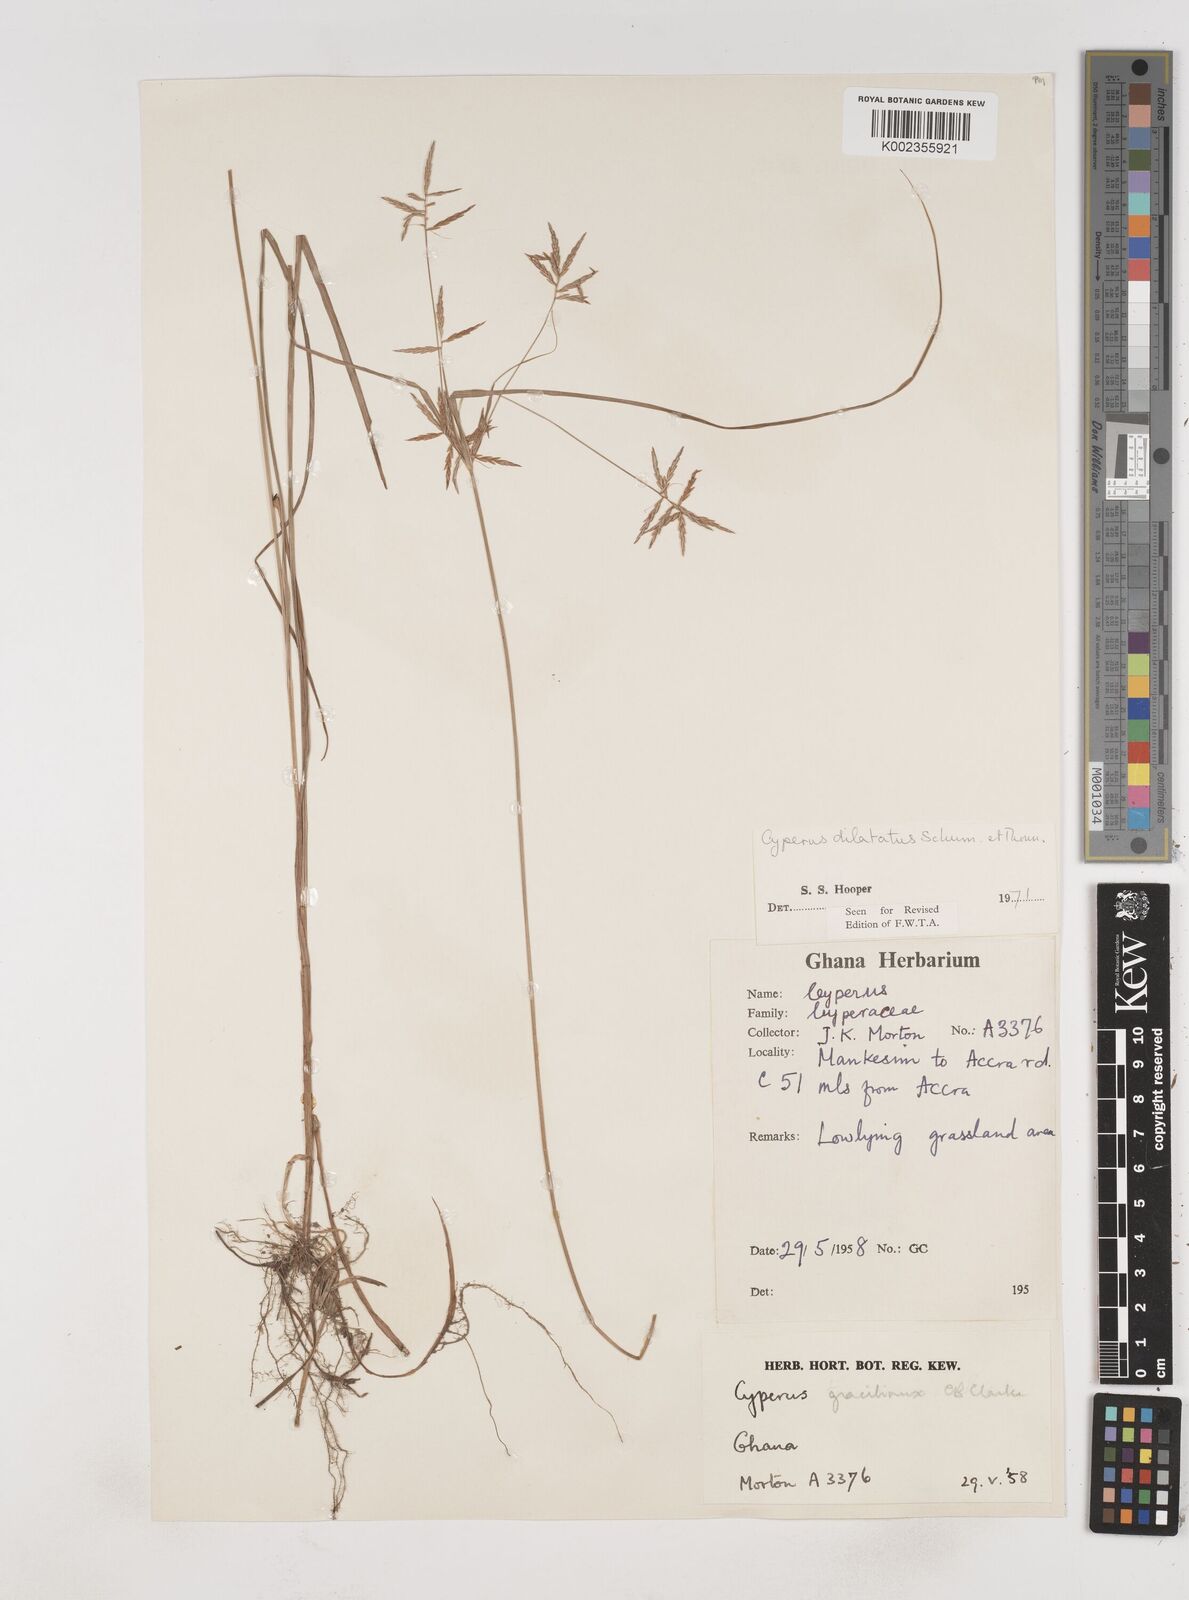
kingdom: Plantae
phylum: Tracheophyta
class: Liliopsida
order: Poales
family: Cyperaceae
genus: Cyperus
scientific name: Cyperus dilatatus
